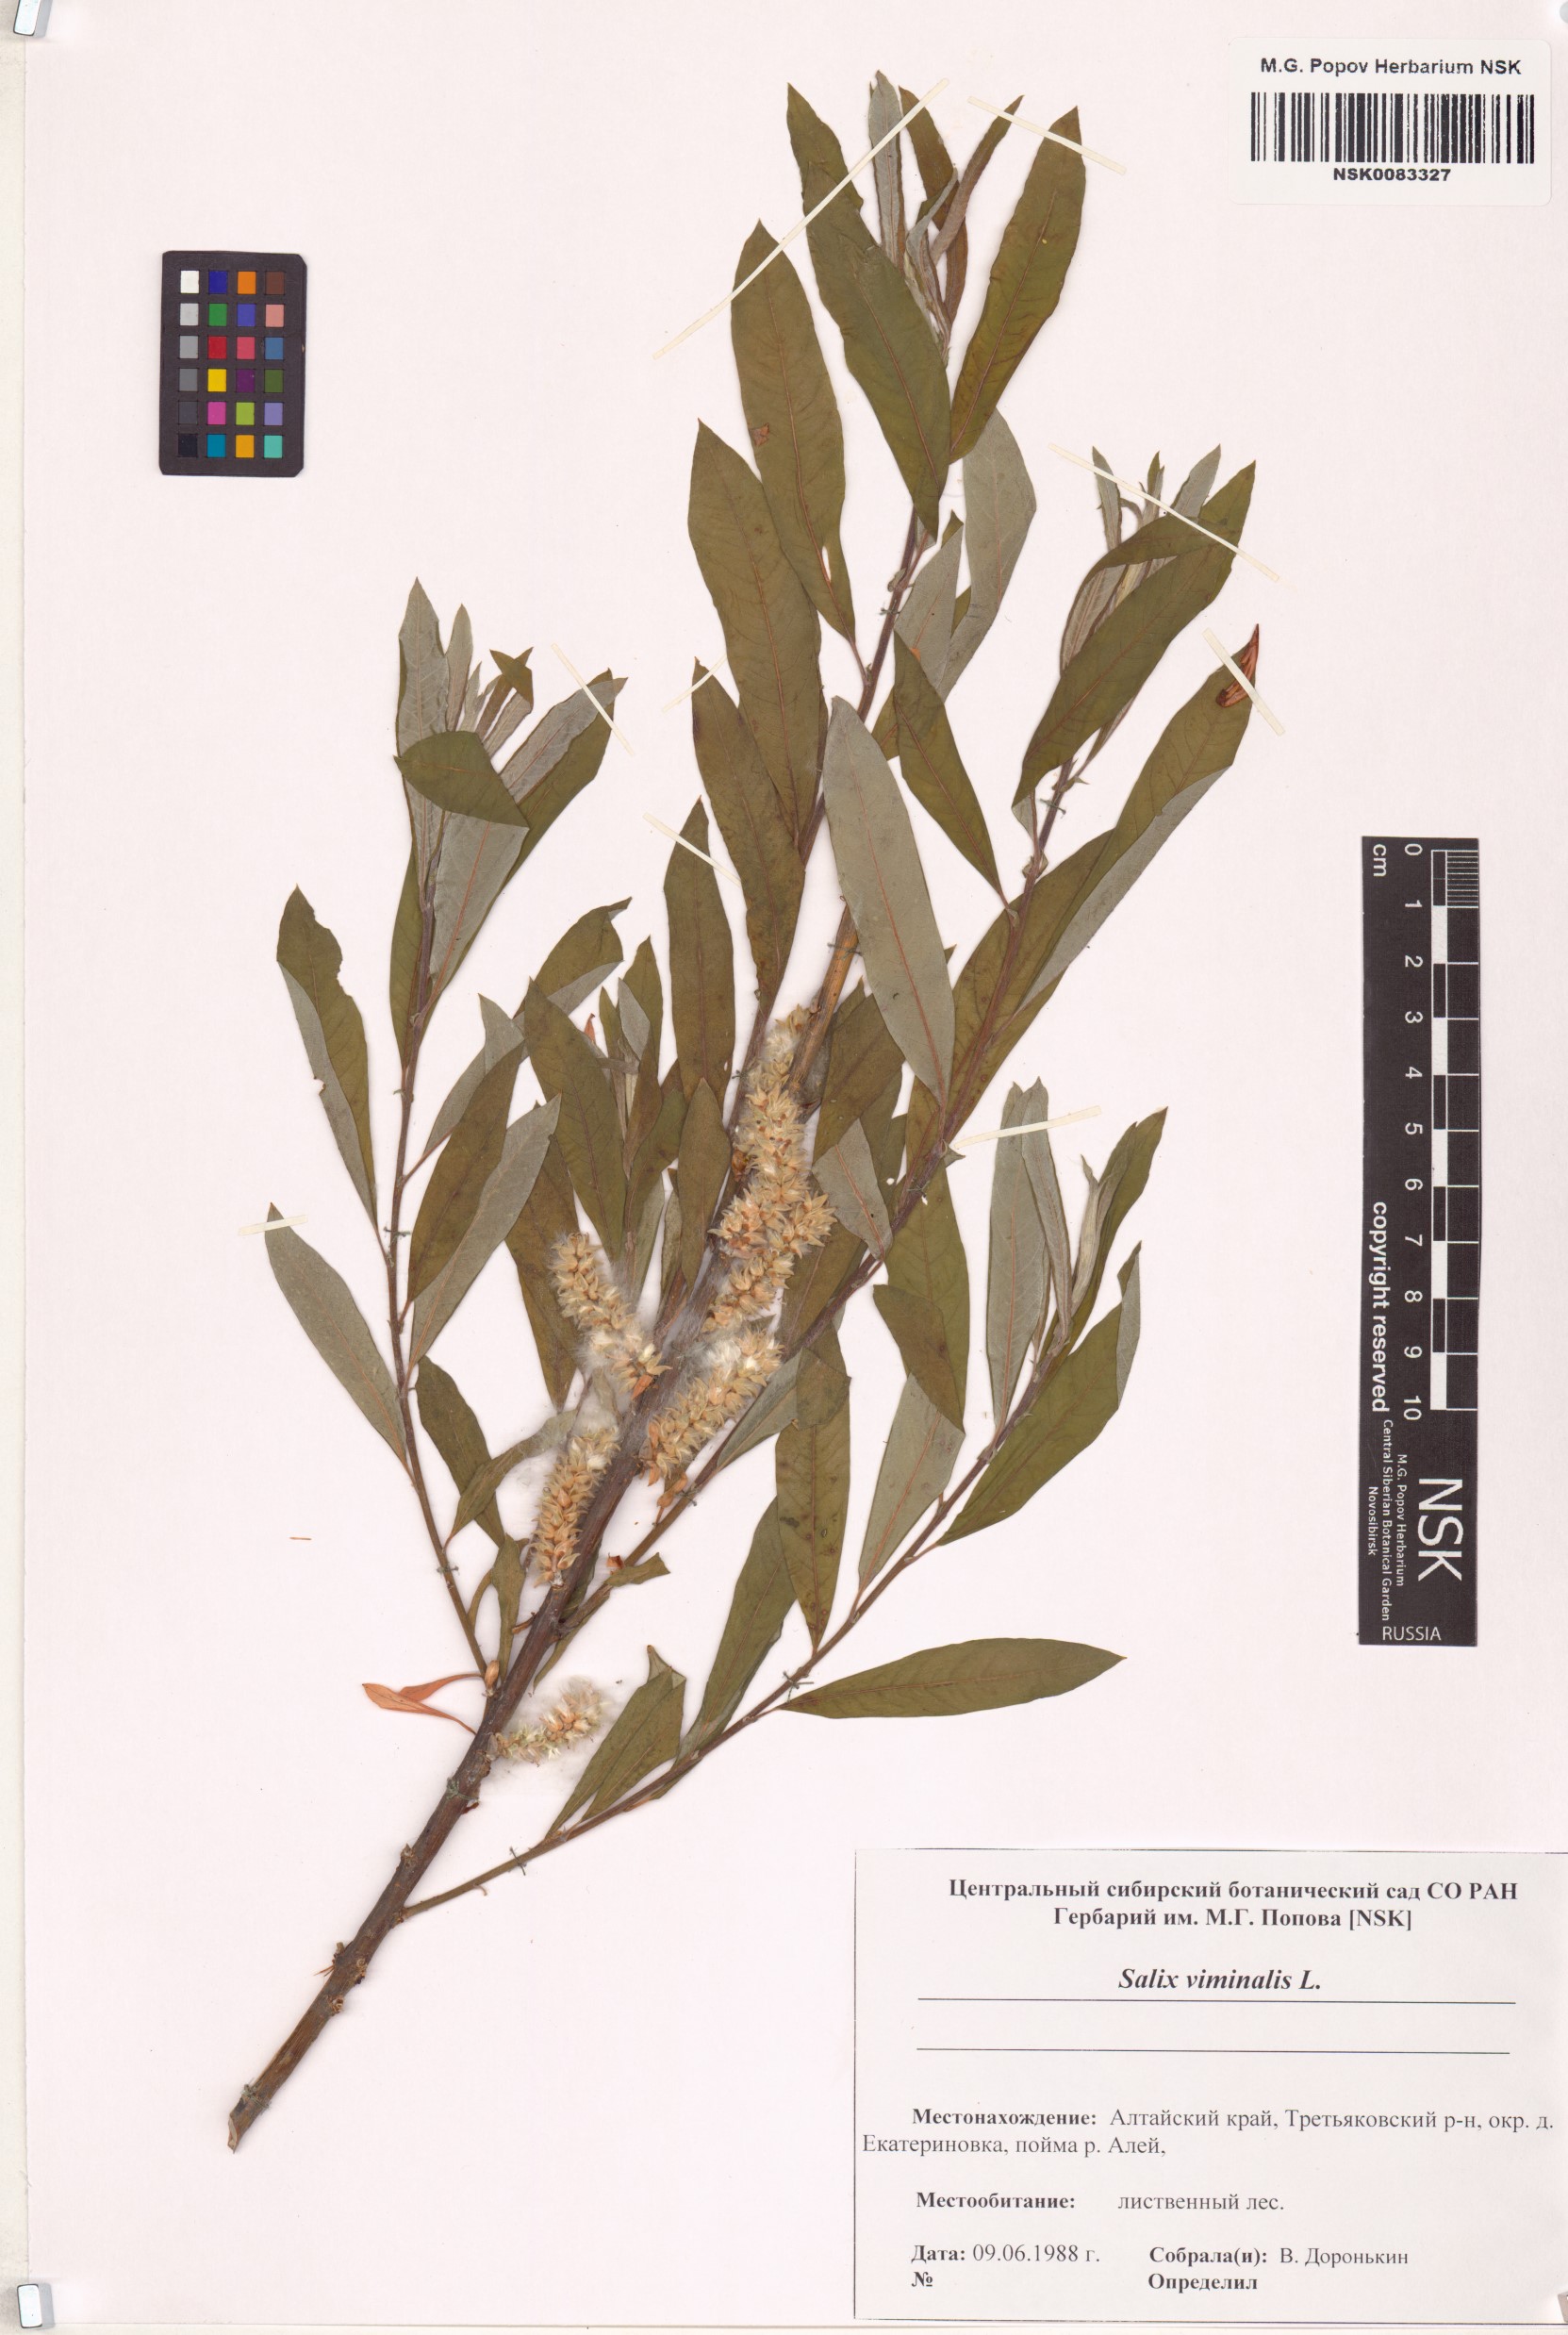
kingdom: Plantae
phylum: Tracheophyta
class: Magnoliopsida
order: Malpighiales
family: Salicaceae
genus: Salix
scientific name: Salix viminalis
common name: Osier
